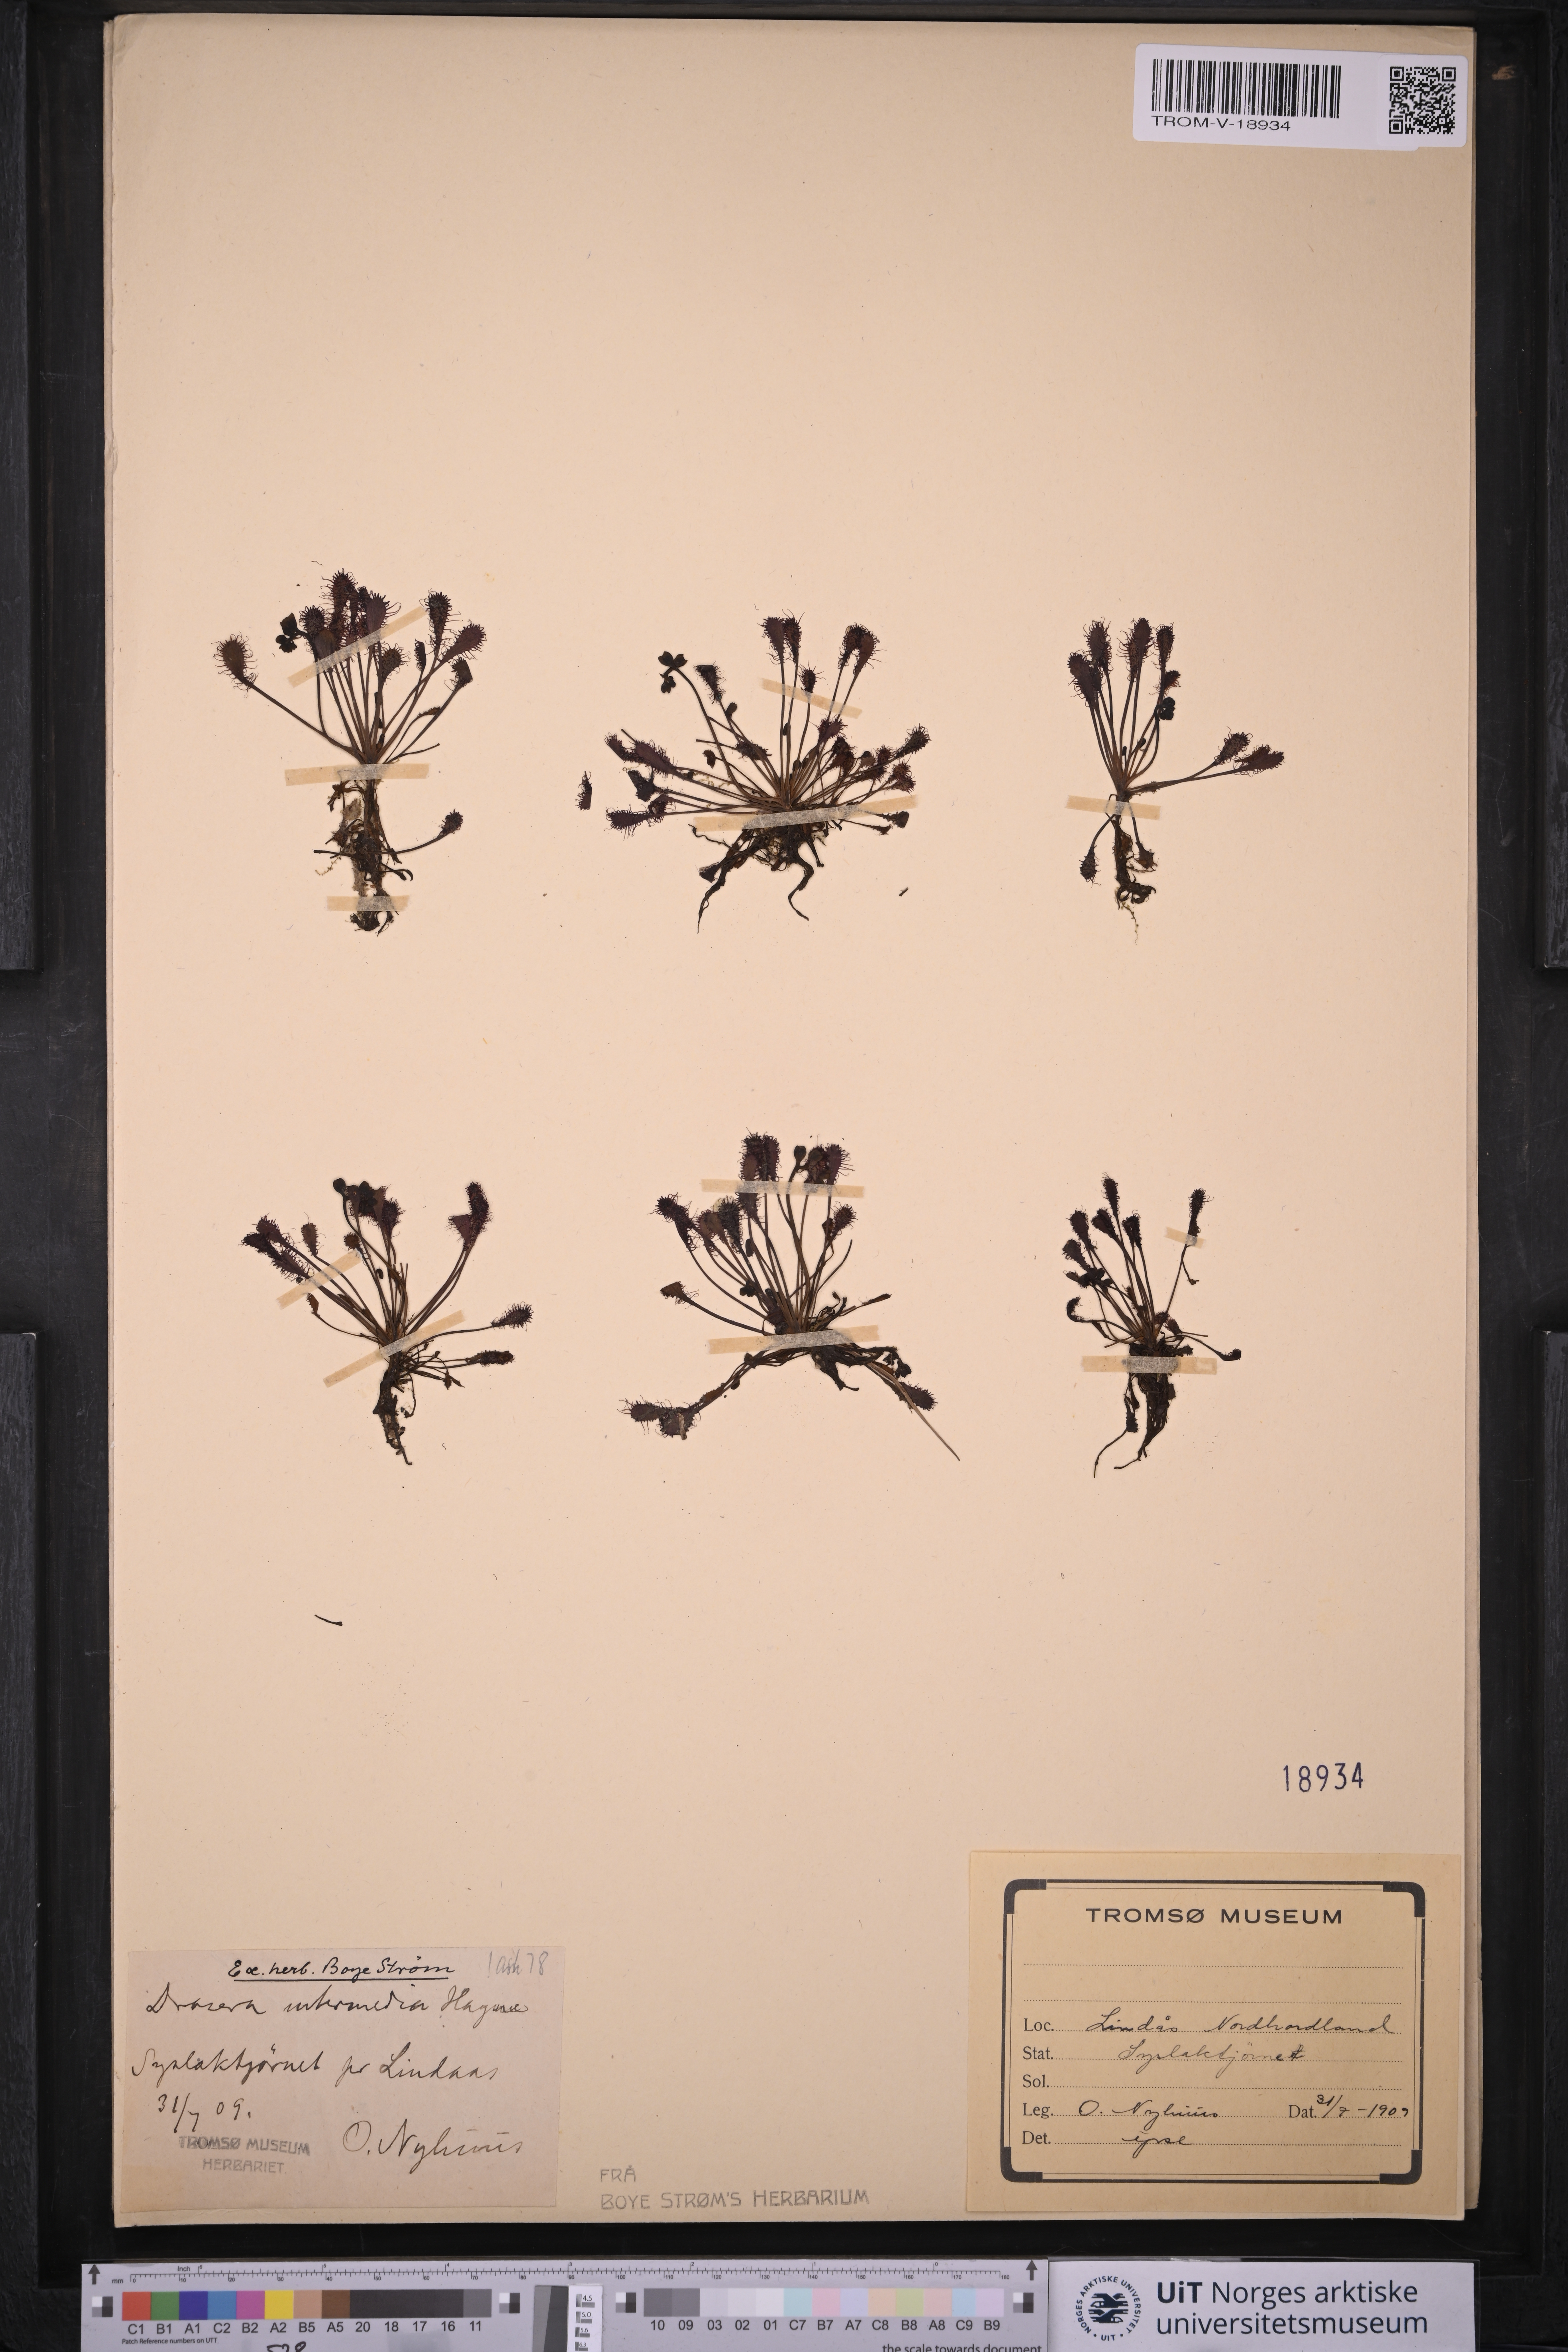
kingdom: Plantae
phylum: Tracheophyta
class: Magnoliopsida
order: Caryophyllales
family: Droseraceae
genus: Drosera
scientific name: Drosera intermedia
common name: Oblong-leaved sundew
